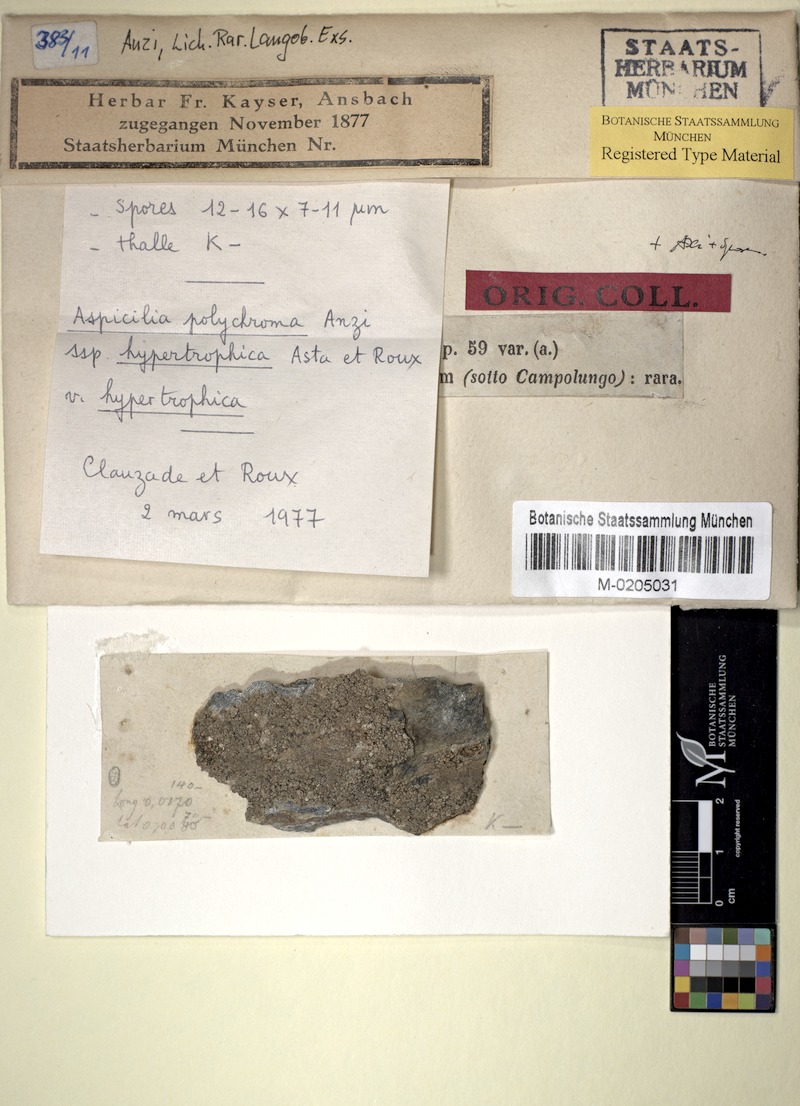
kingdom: Fungi
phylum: Ascomycota
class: Lecanoromycetes
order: Pertusariales
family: Megasporaceae
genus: Aspicilia
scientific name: Aspicilia polychroma
